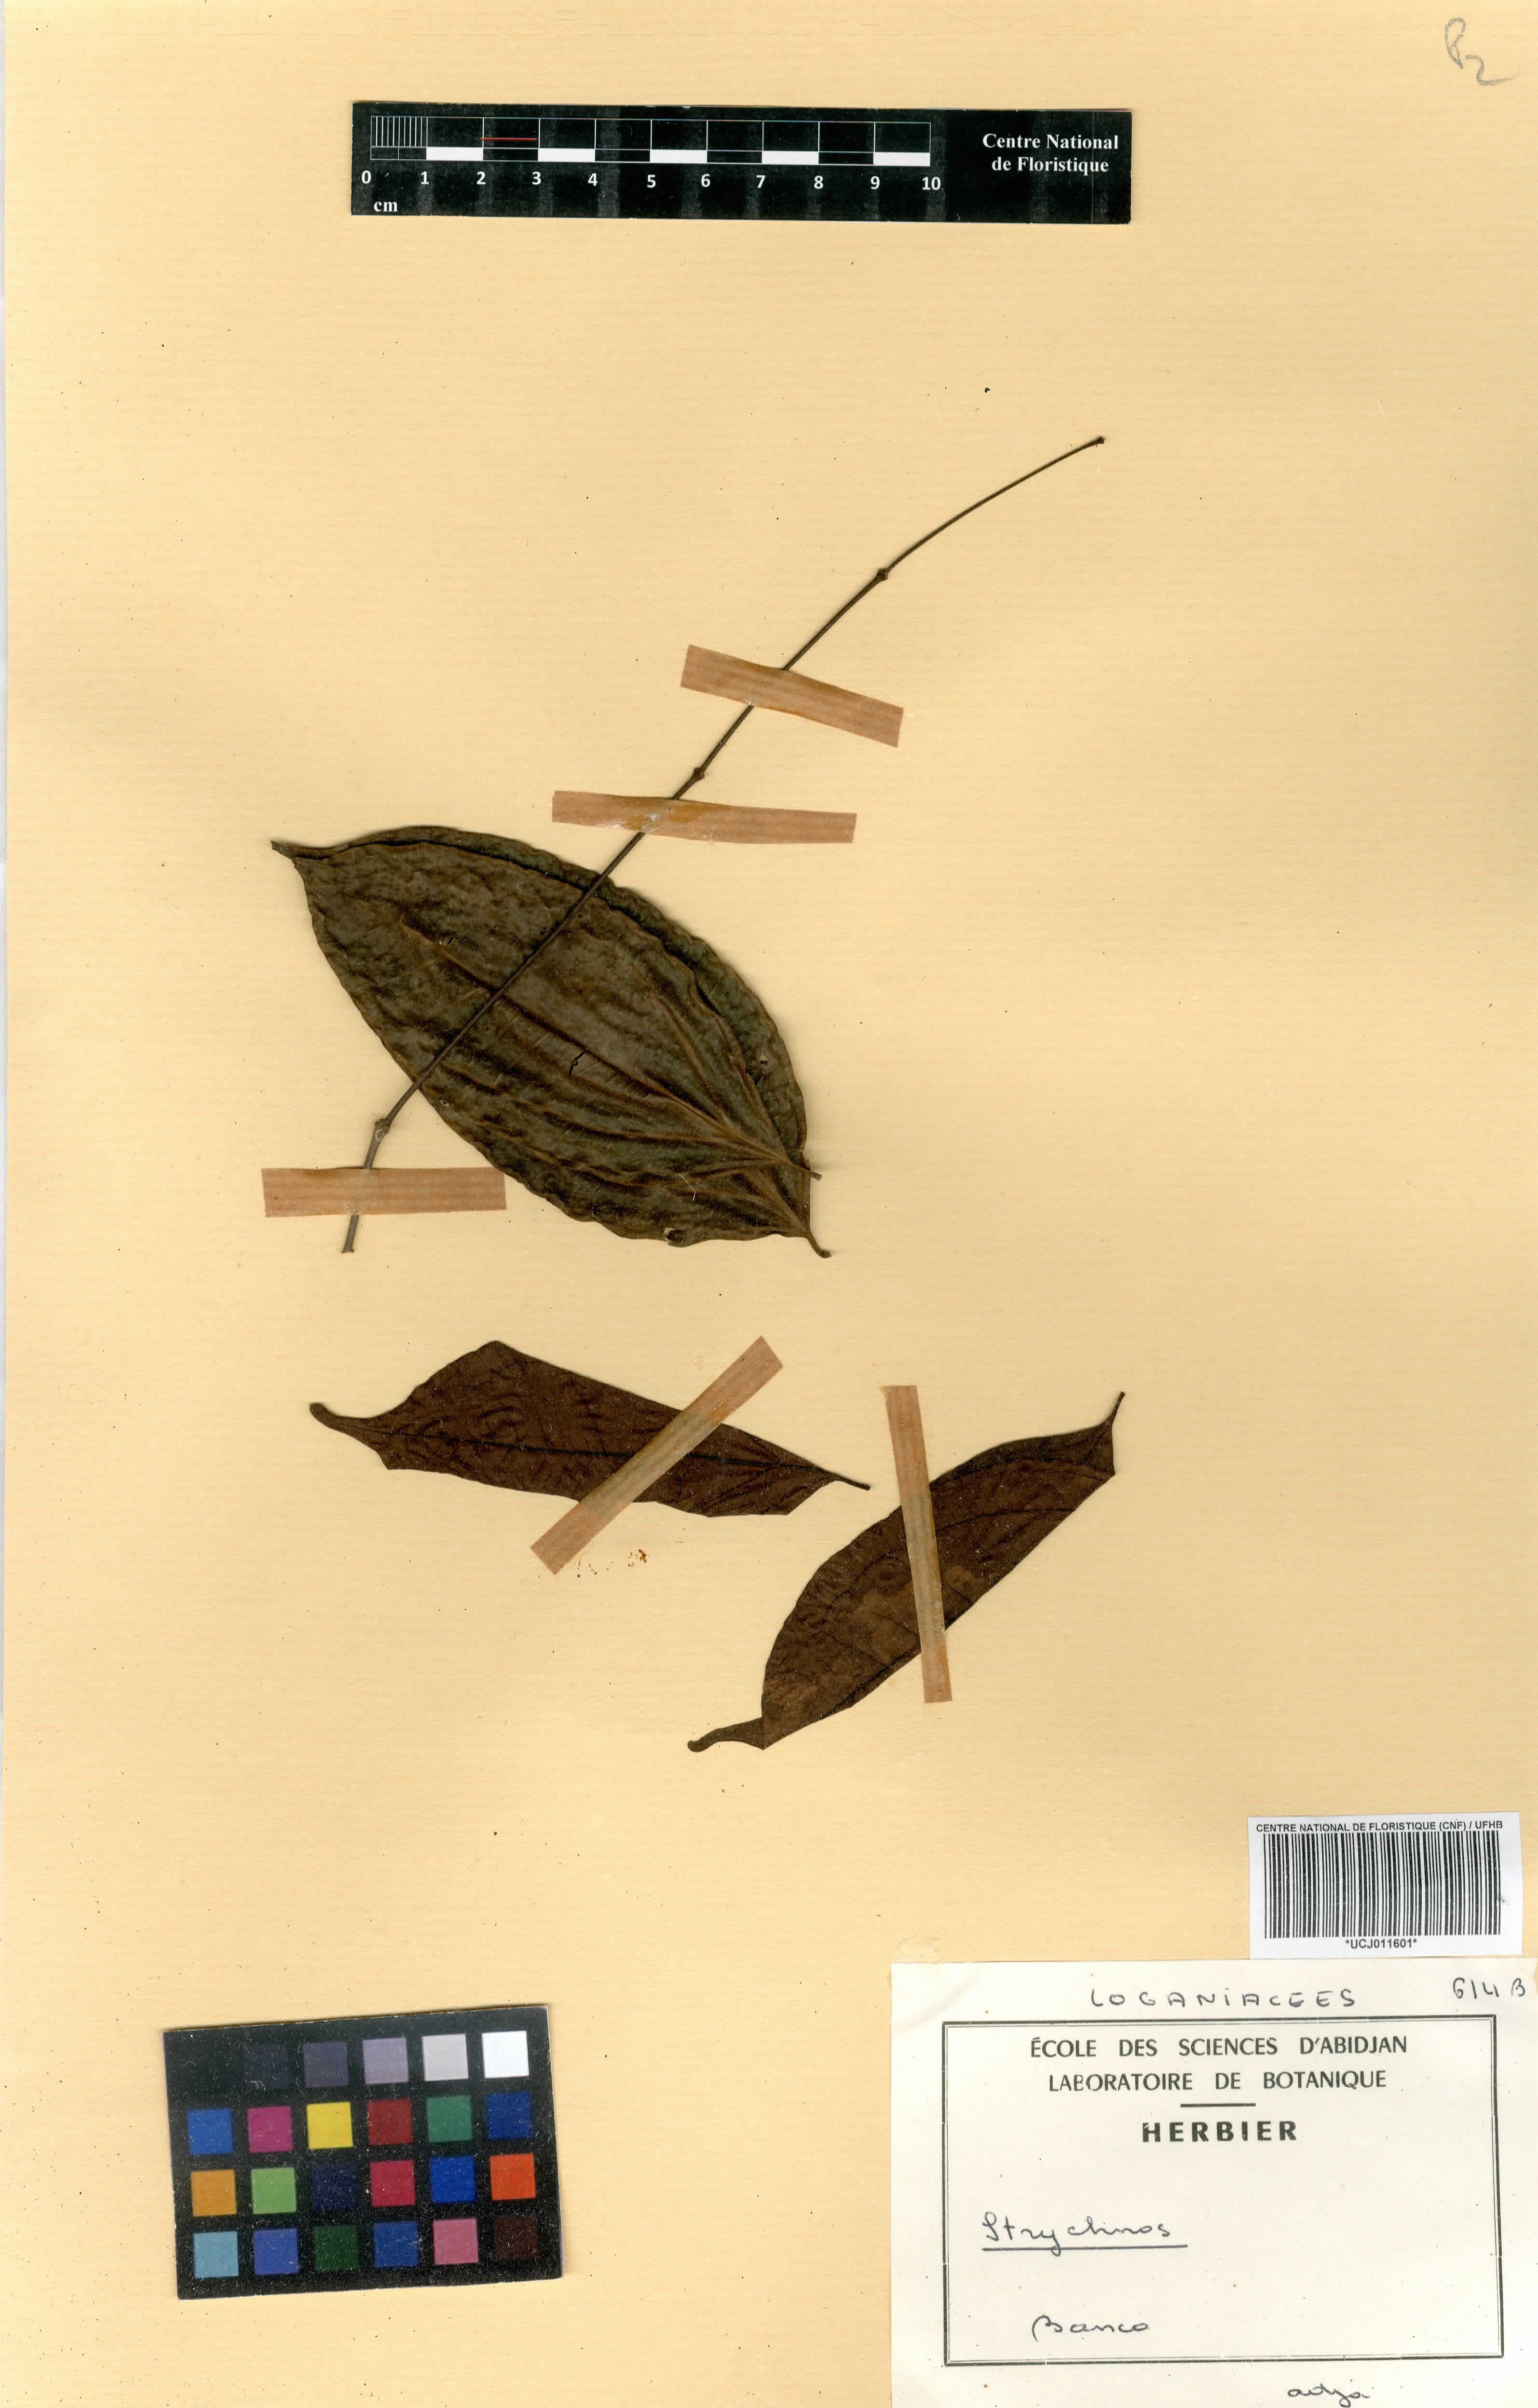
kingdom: Plantae
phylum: Tracheophyta
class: Magnoliopsida
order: Gentianales
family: Loganiaceae
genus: Strychnos
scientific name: Strychnos
